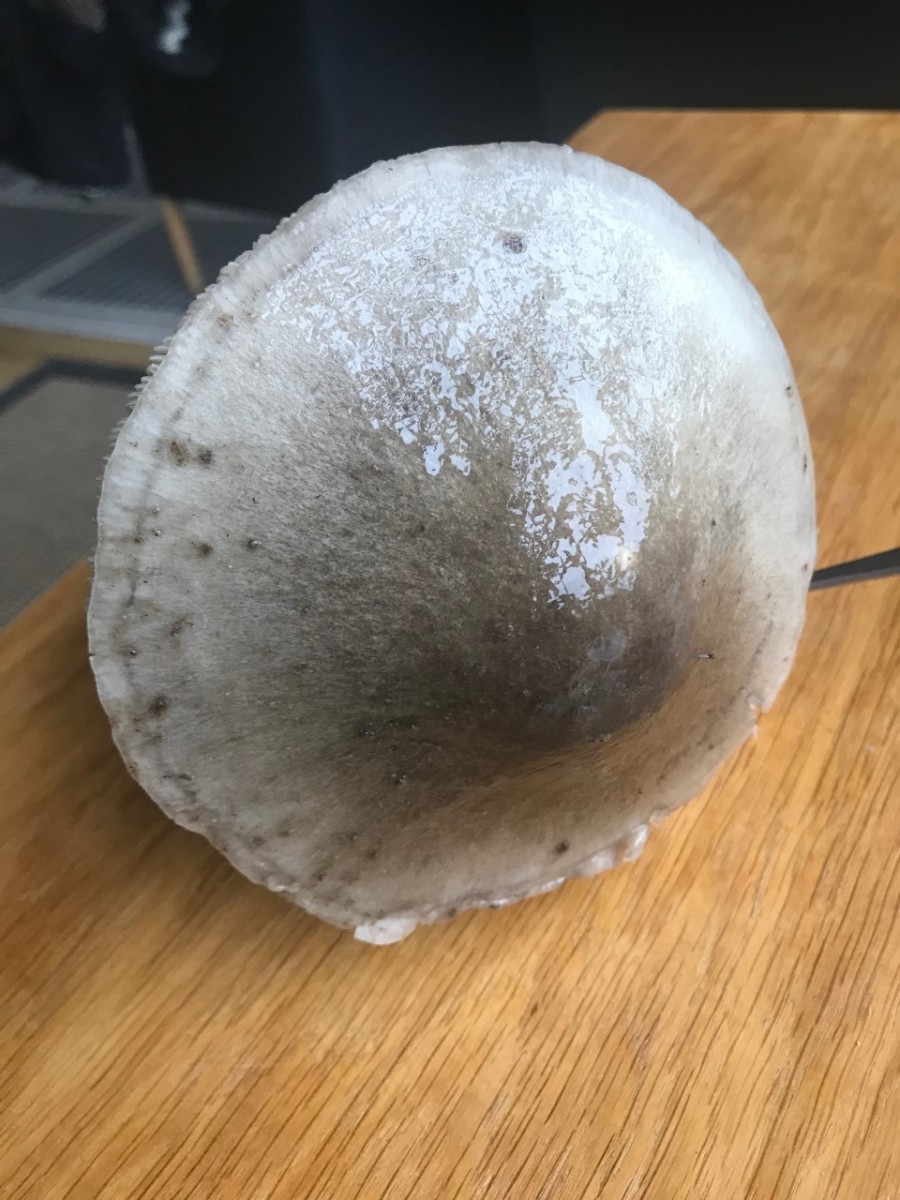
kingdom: Fungi
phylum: Basidiomycota
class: Agaricomycetes
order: Agaricales
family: Pluteaceae
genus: Volvopluteus
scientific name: Volvopluteus gloiocephalus
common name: høj posesvamp
